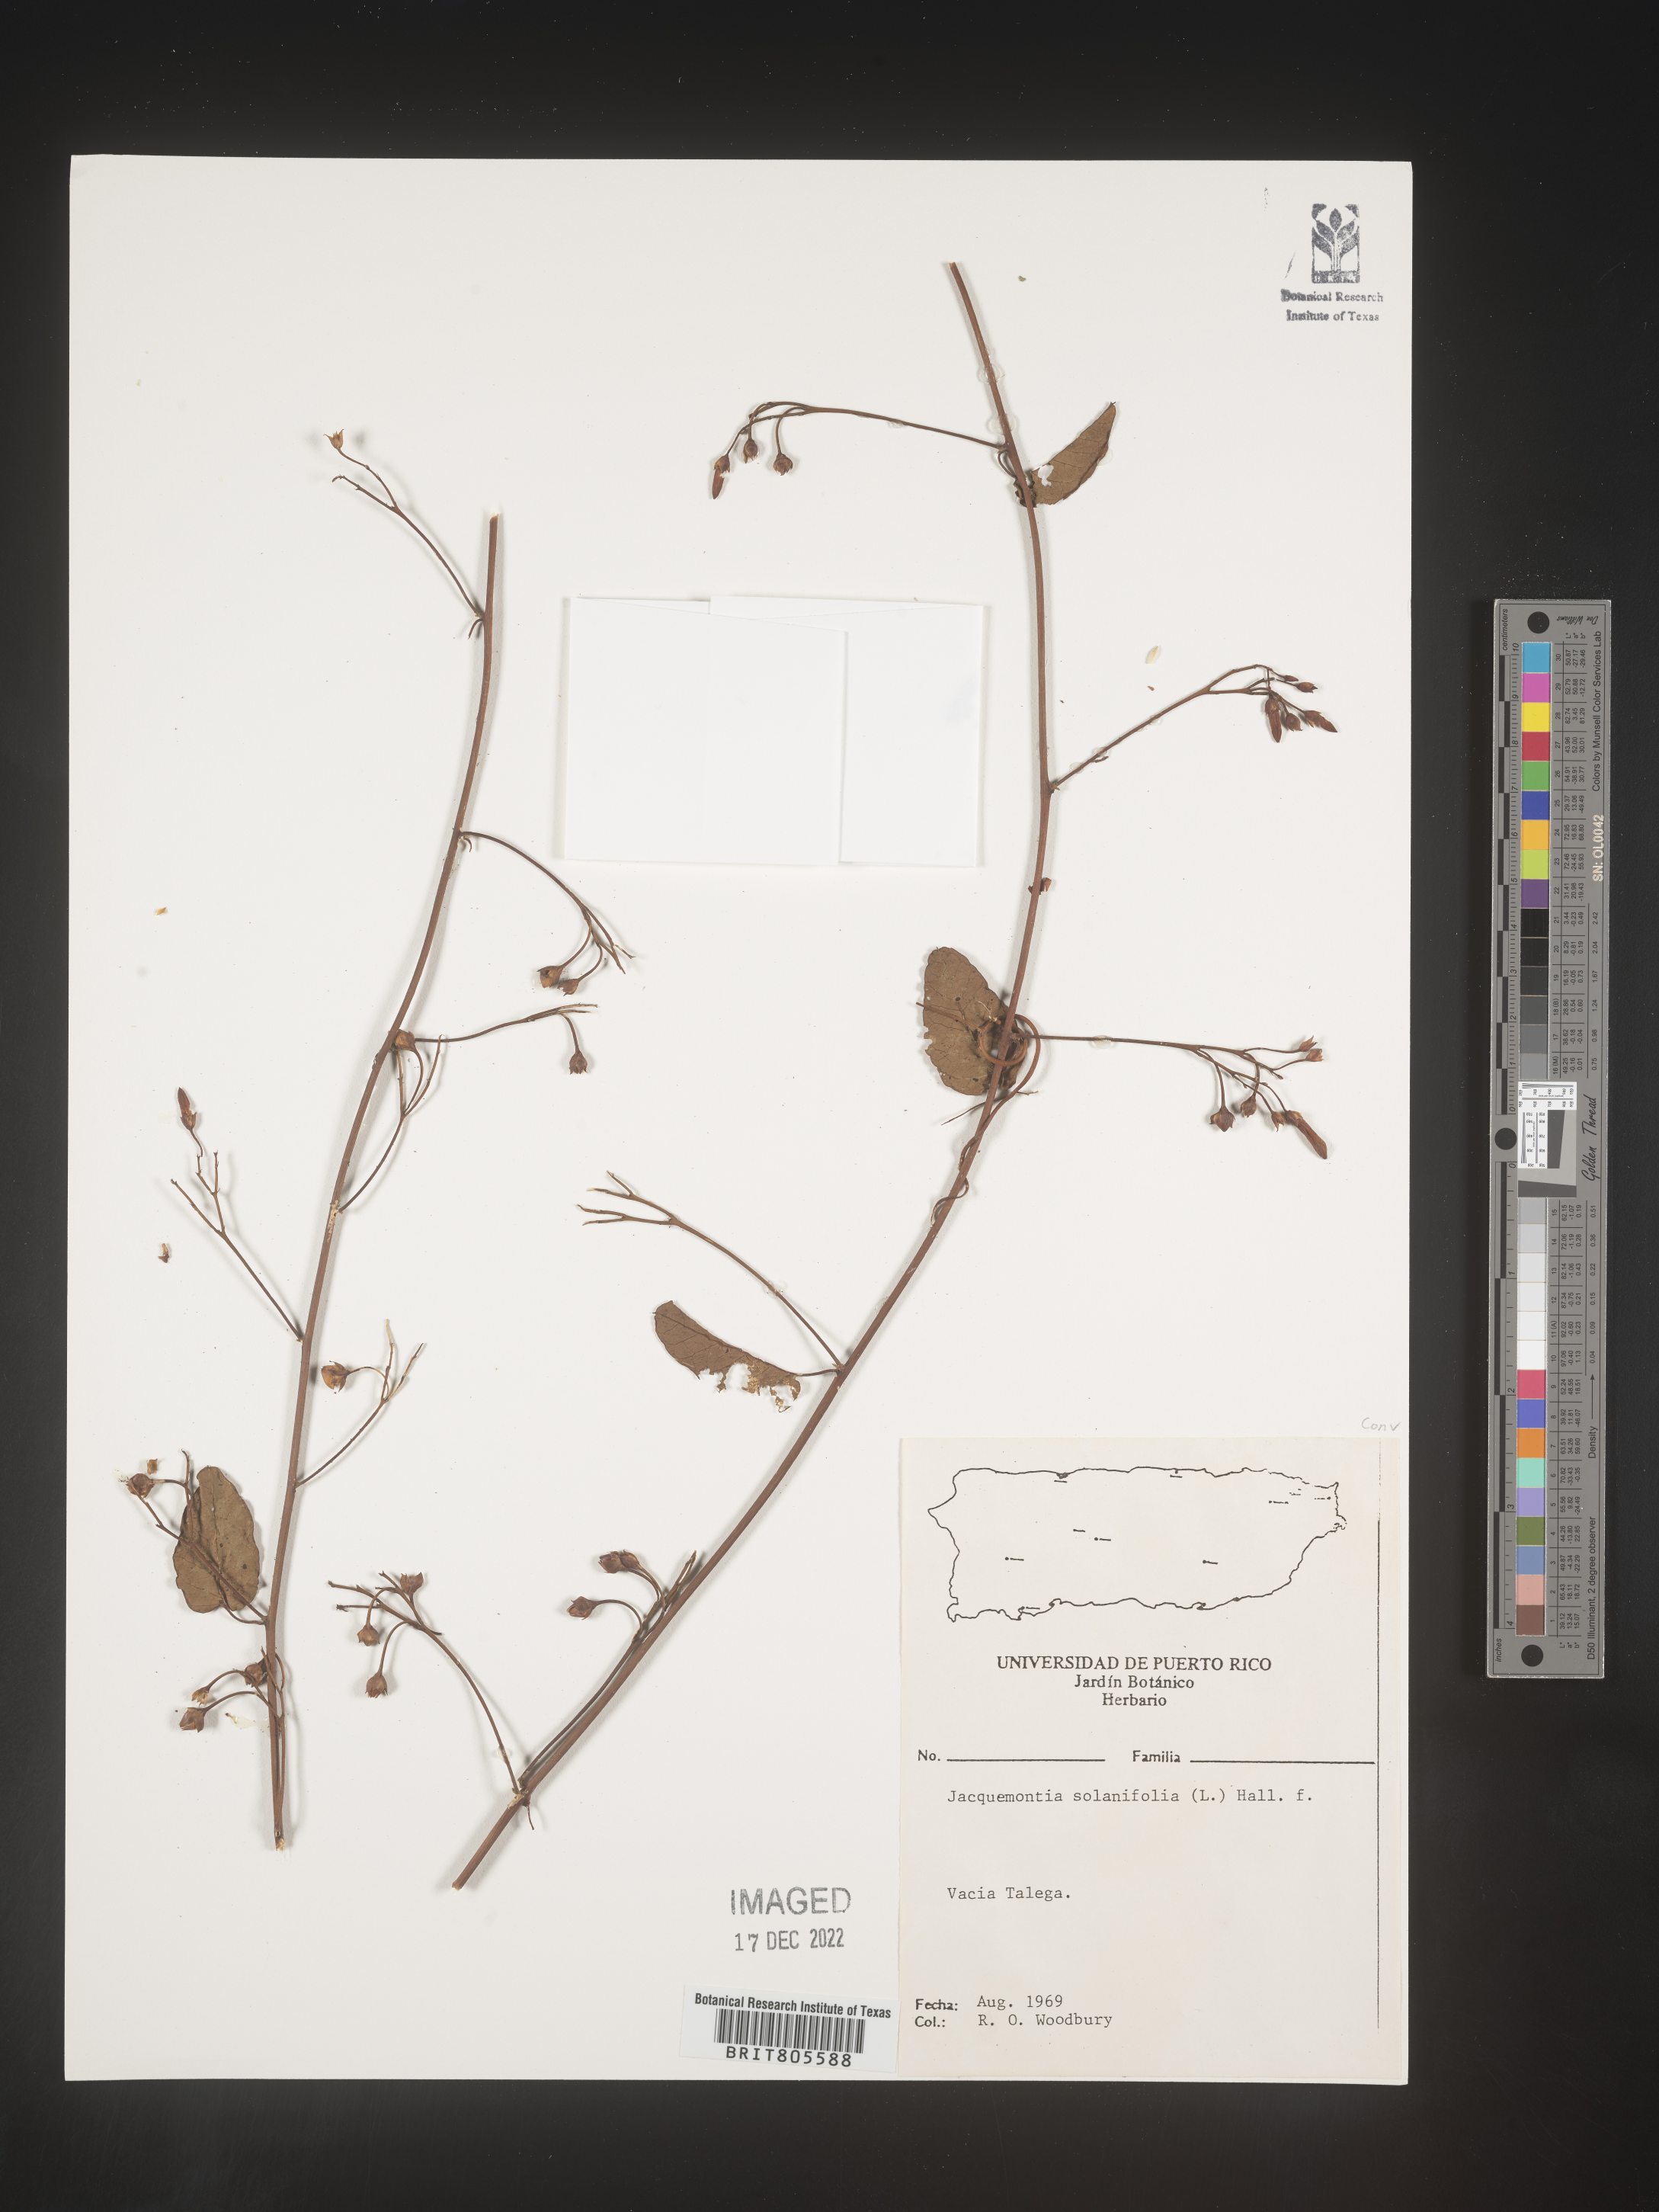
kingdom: Plantae
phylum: Tracheophyta
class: Magnoliopsida
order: Solanales
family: Convolvulaceae
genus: Jacquemontia
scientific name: Jacquemontia
